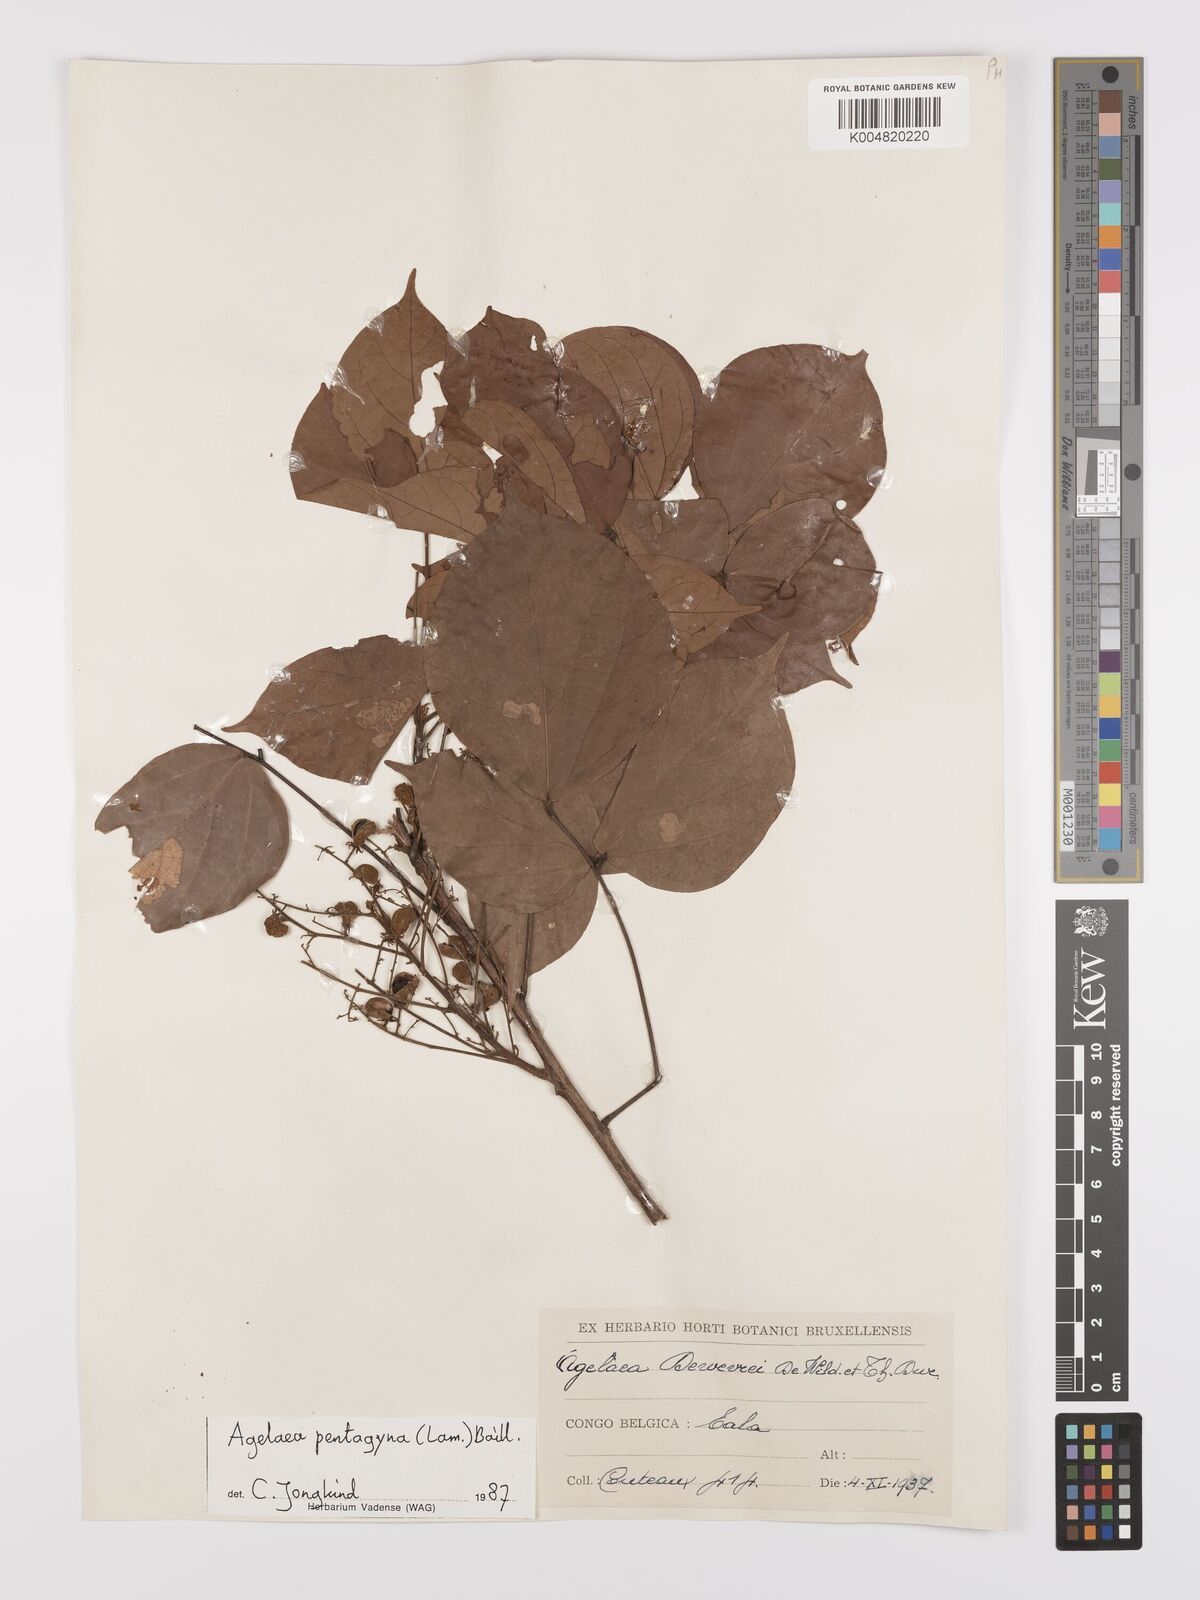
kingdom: Plantae
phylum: Tracheophyta
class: Magnoliopsida
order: Oxalidales
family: Connaraceae
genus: Agelaea
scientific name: Agelaea pentagyna
